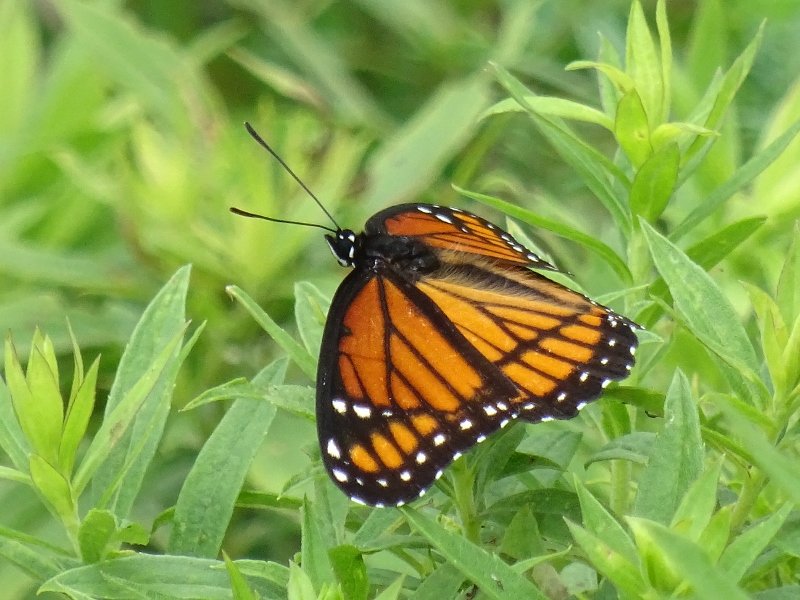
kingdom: Animalia
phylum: Arthropoda
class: Insecta
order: Lepidoptera
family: Nymphalidae
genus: Limenitis
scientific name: Limenitis archippus
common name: Viceroy
